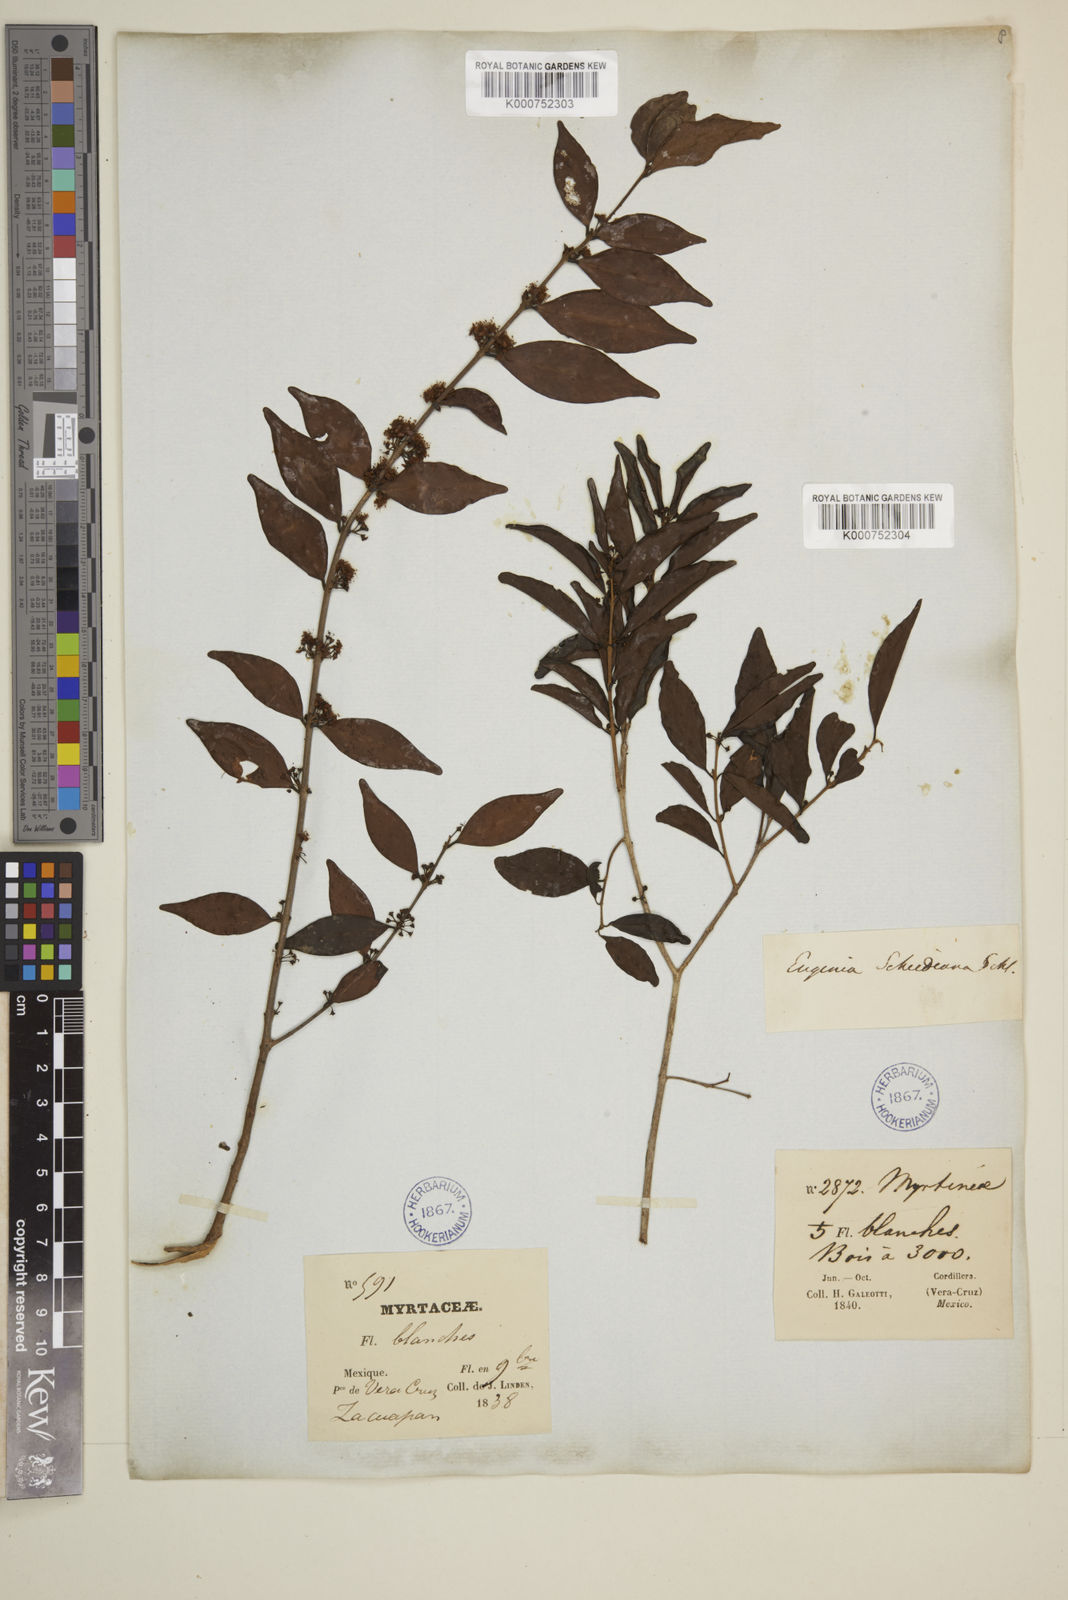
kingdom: Plantae
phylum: Tracheophyta
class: Magnoliopsida
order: Myrtales
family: Myrtaceae
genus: Eugenia
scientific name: Eugenia capuli
